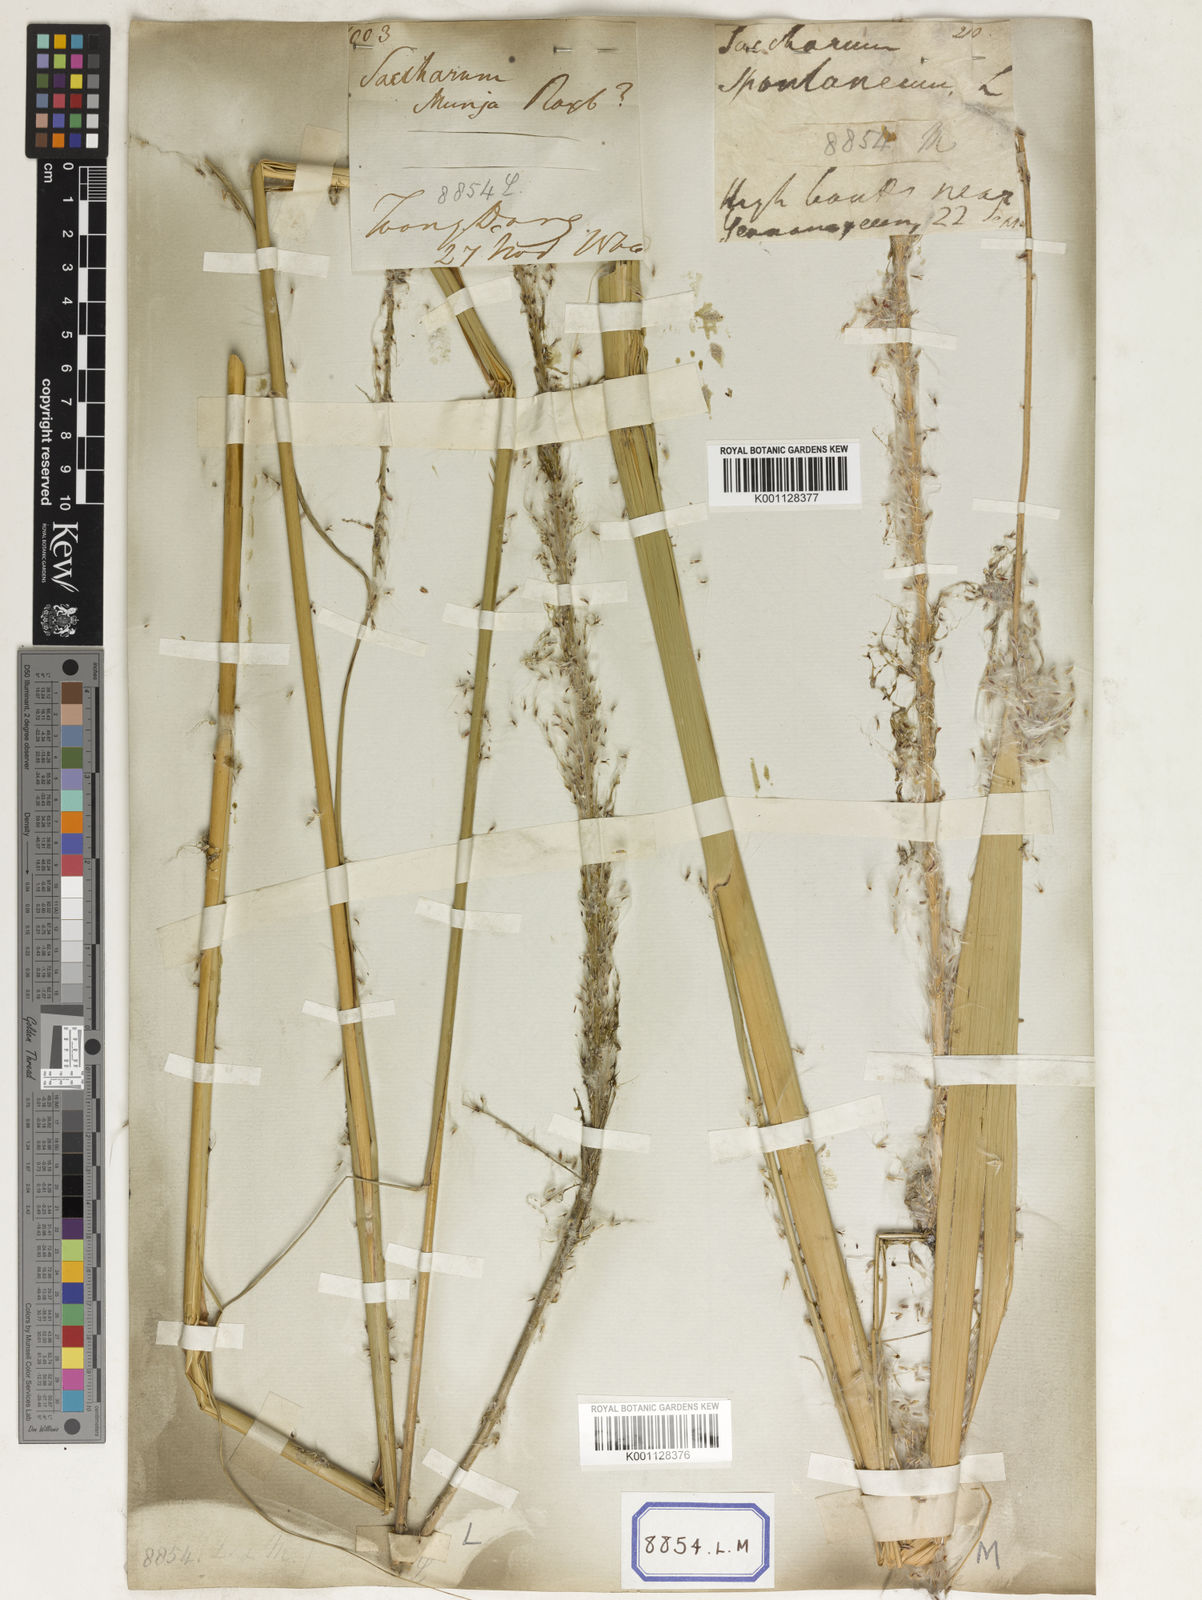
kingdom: Plantae
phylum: Tracheophyta
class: Liliopsida
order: Poales
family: Poaceae
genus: Saccharum
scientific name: Saccharum
